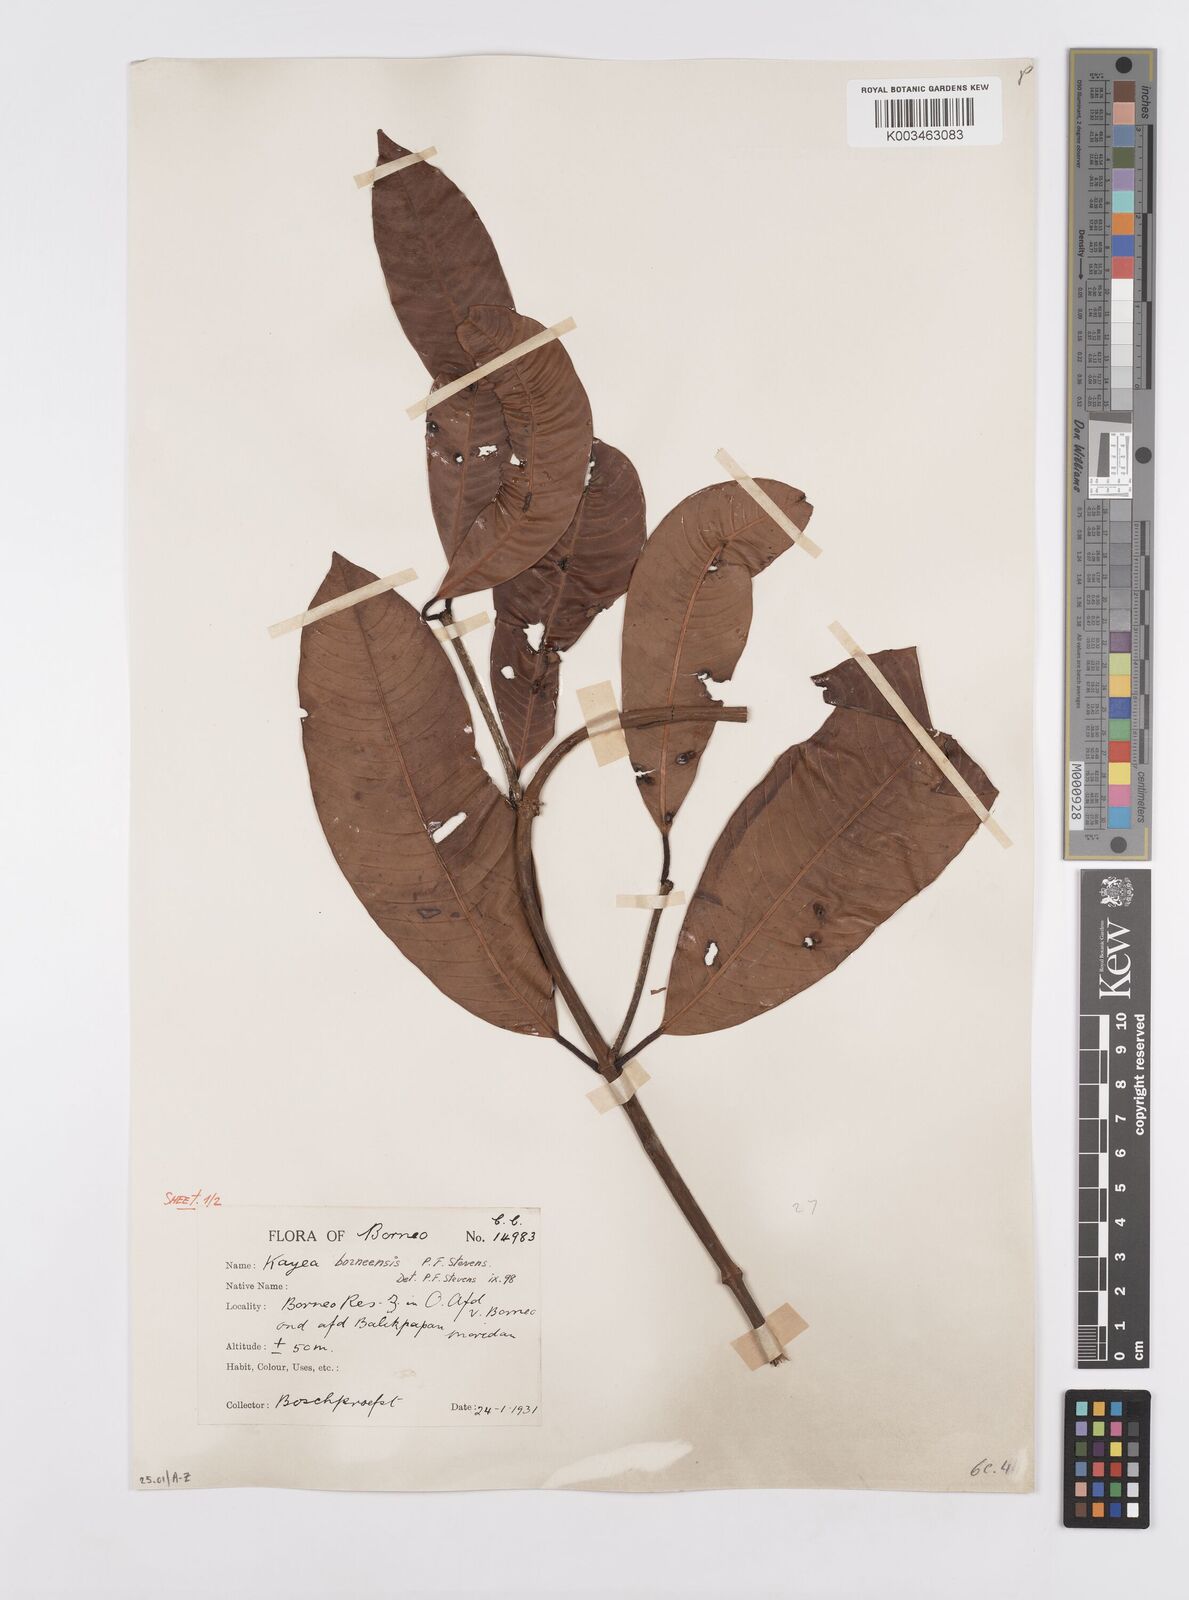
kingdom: Plantae
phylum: Tracheophyta
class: Magnoliopsida
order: Malpighiales
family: Calophyllaceae
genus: Kayea
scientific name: Kayea borneensis
